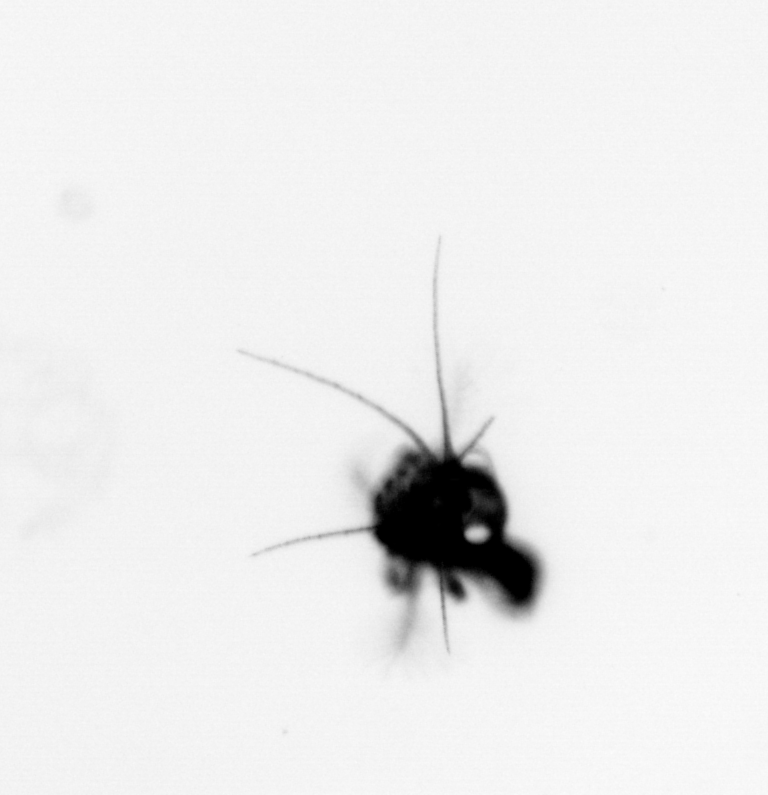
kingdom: Animalia
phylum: Arthropoda
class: Malacostraca
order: Decapoda
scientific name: Decapoda
